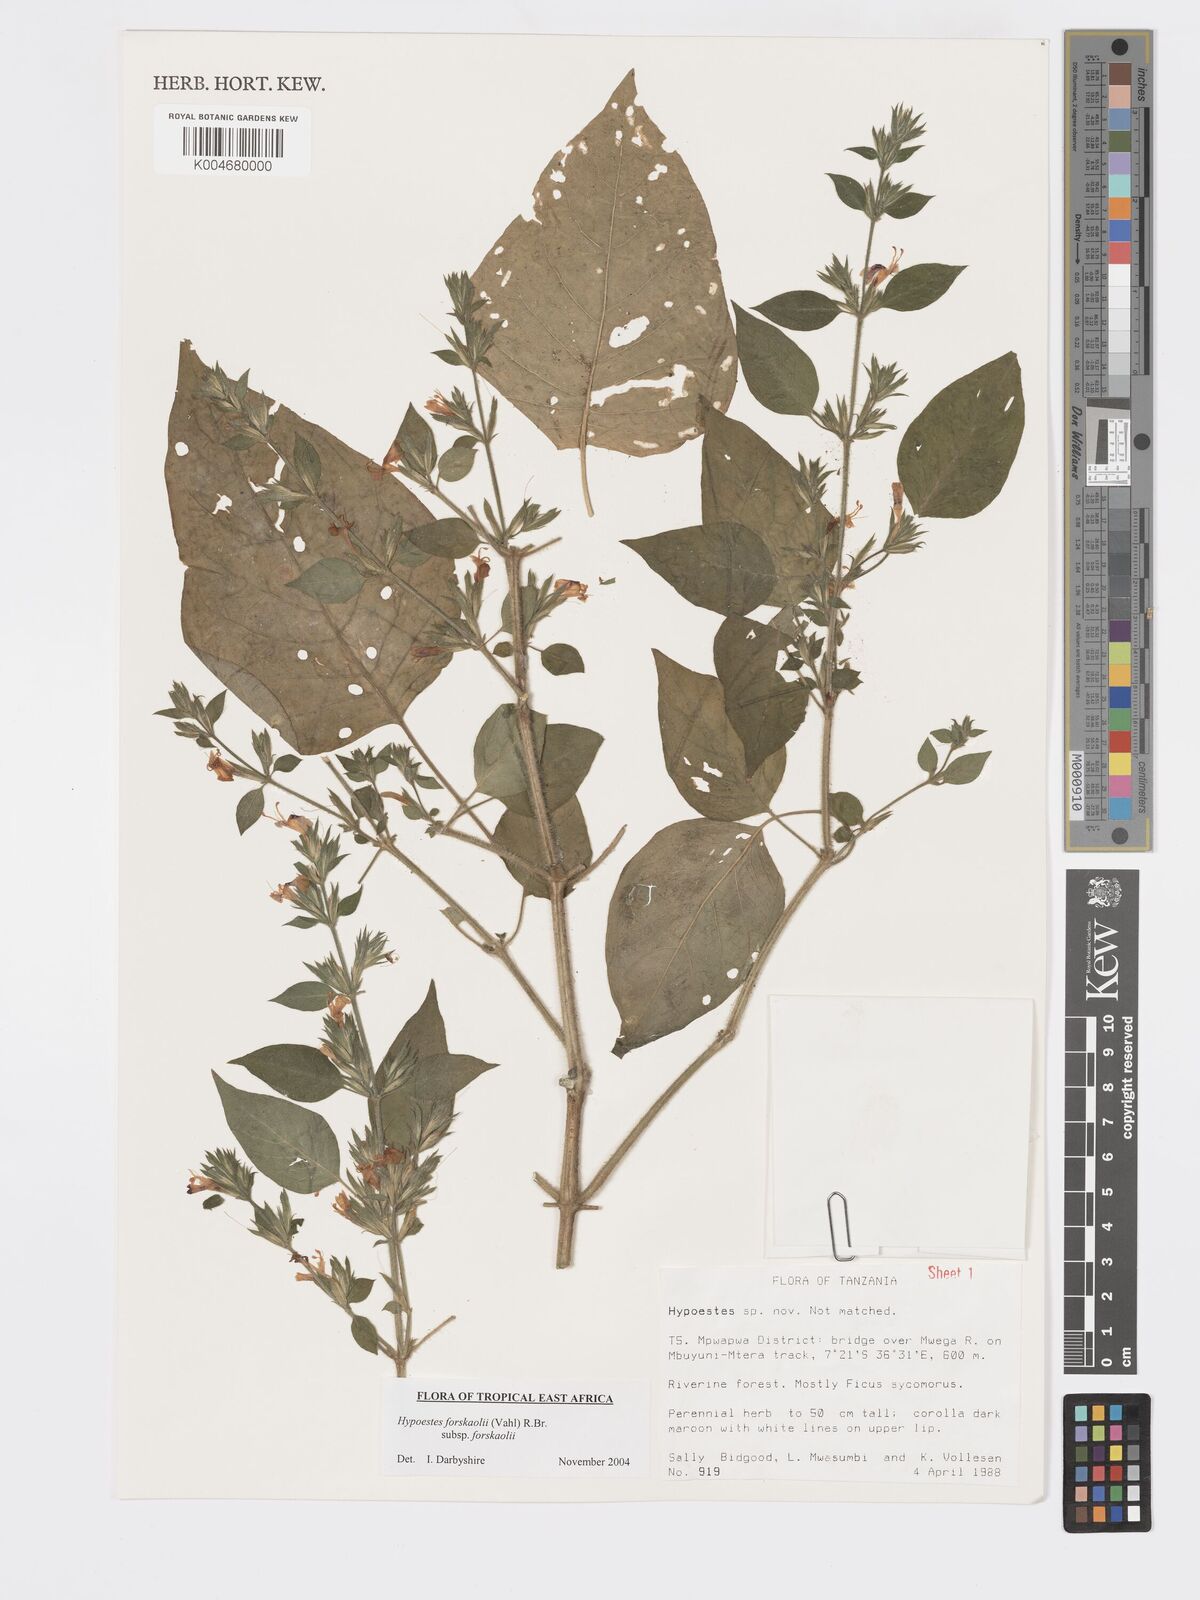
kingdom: Plantae
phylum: Tracheophyta
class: Magnoliopsida
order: Lamiales
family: Acanthaceae
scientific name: Acanthaceae
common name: Acanthaceae
